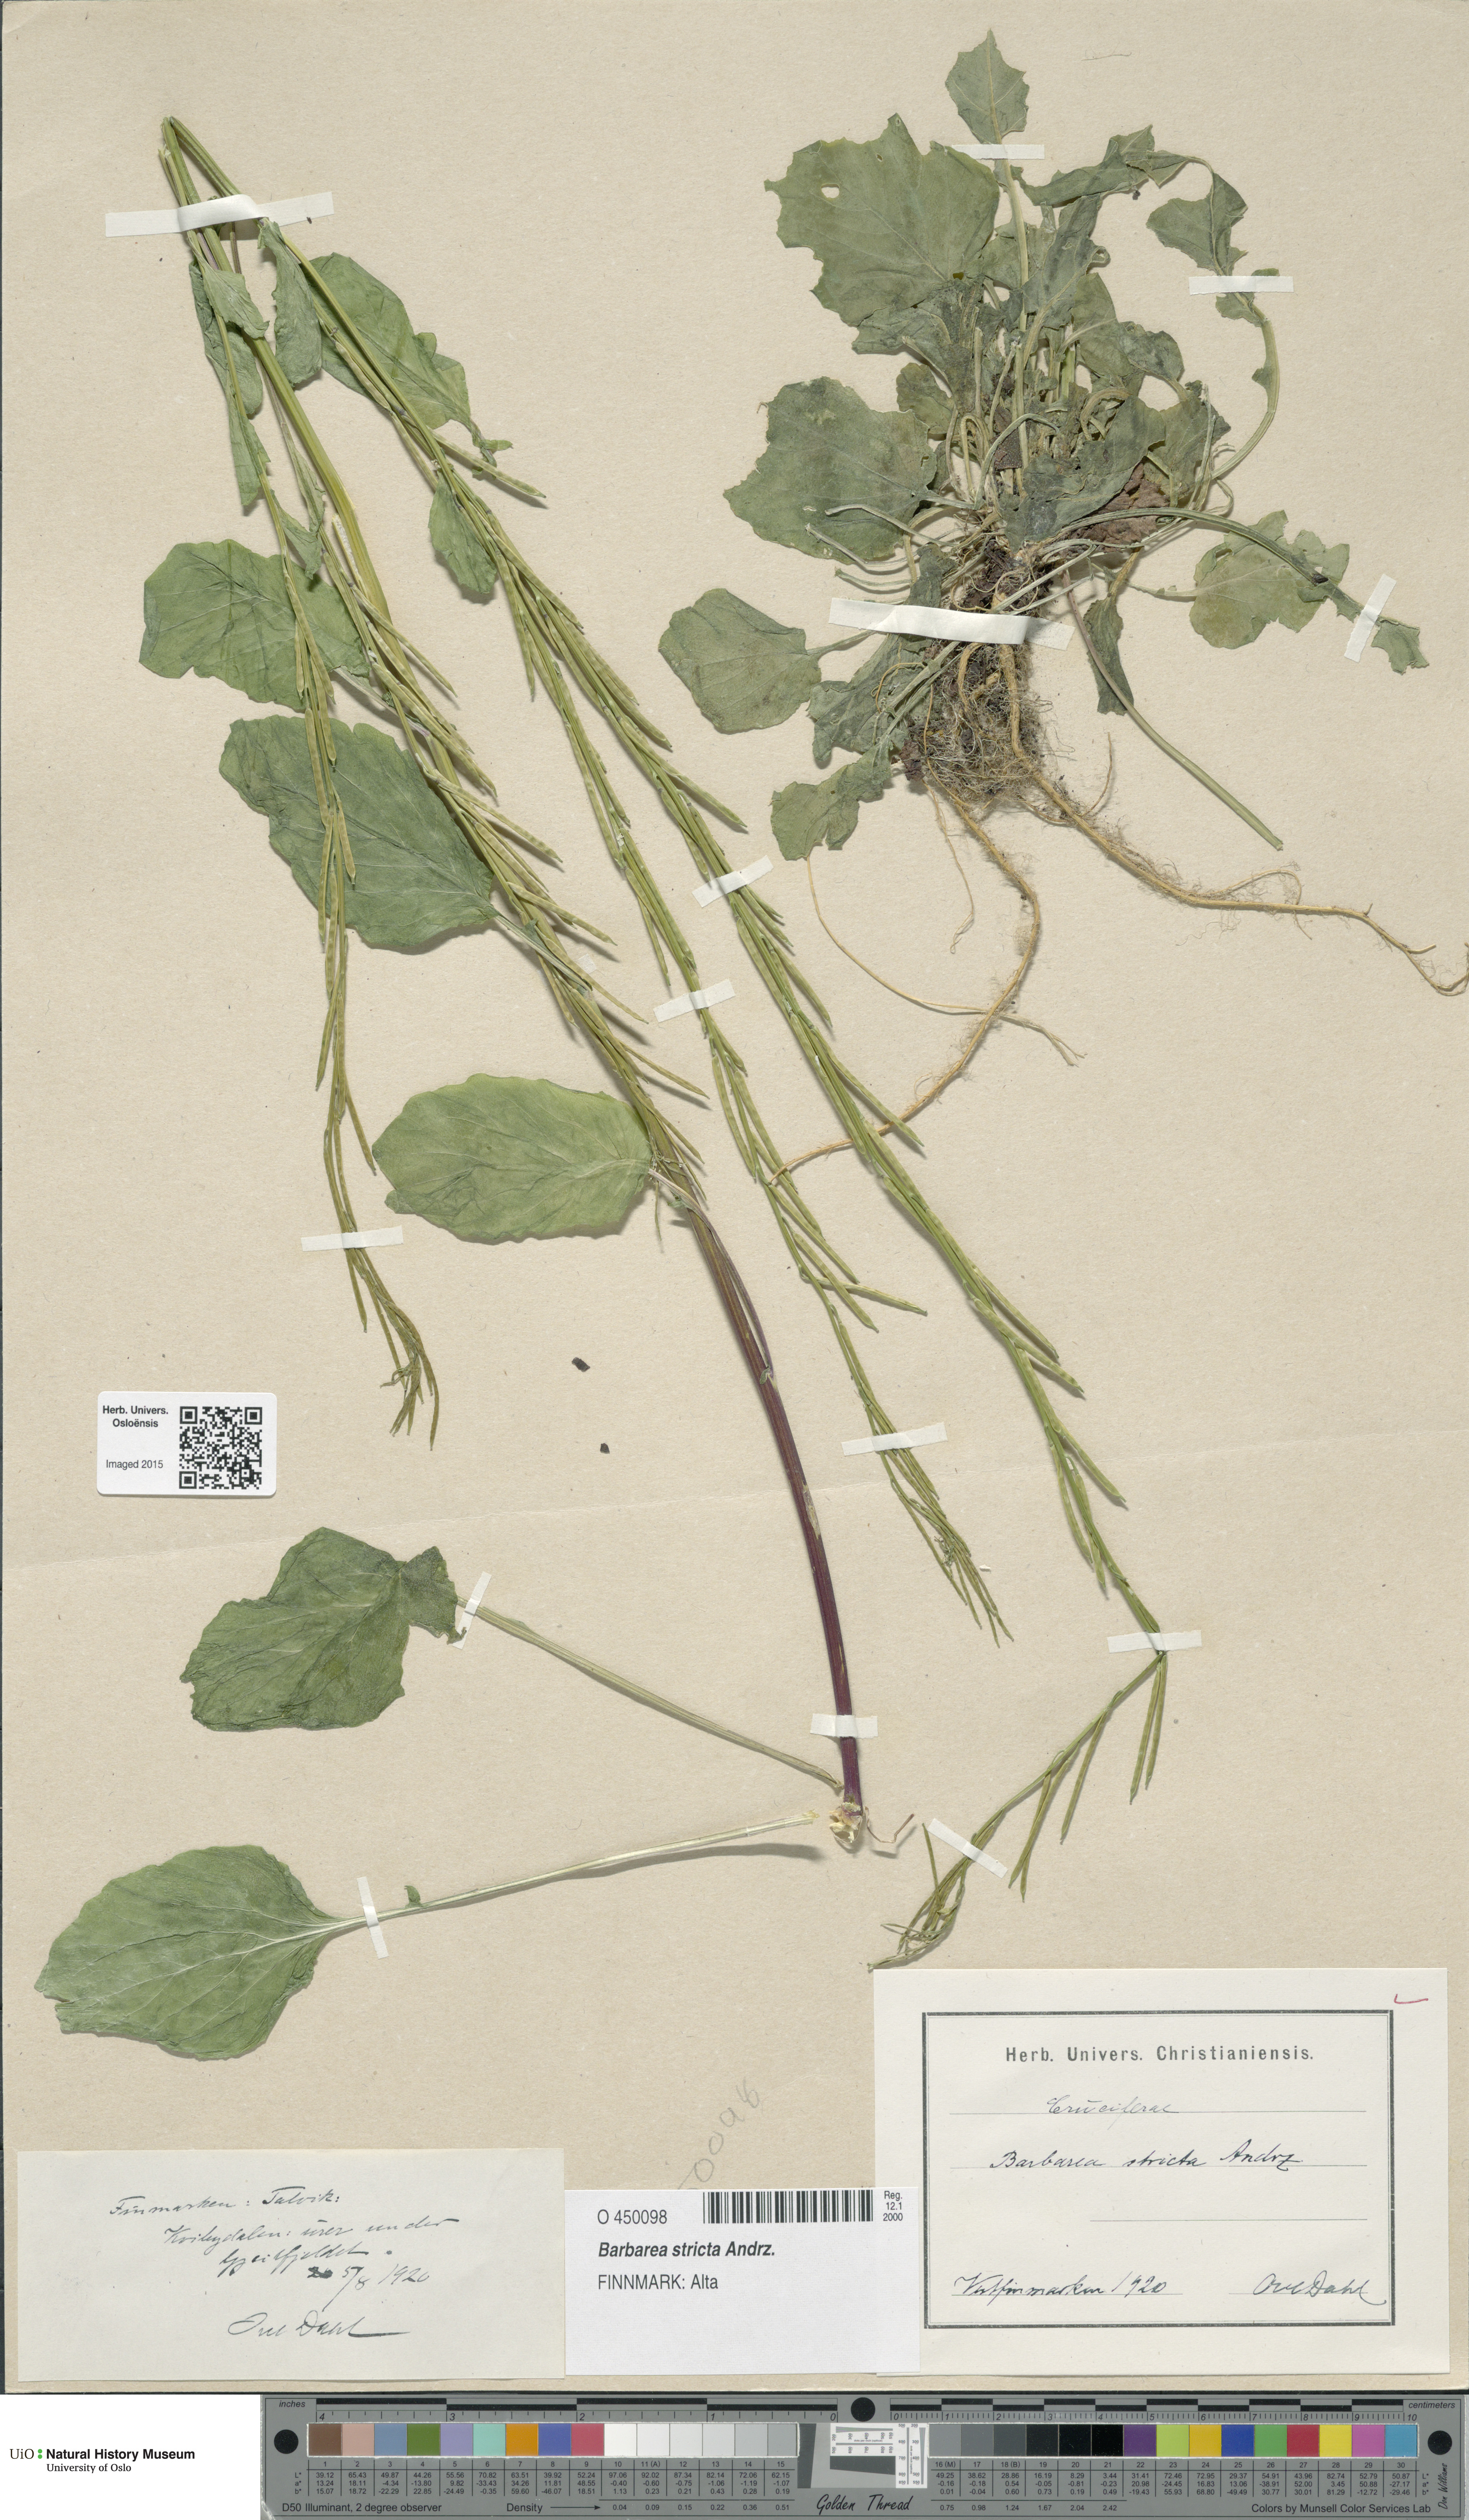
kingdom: Plantae
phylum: Tracheophyta
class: Magnoliopsida
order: Brassicales
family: Brassicaceae
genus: Barbarea
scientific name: Barbarea stricta
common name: Small-flowered winter-cress
